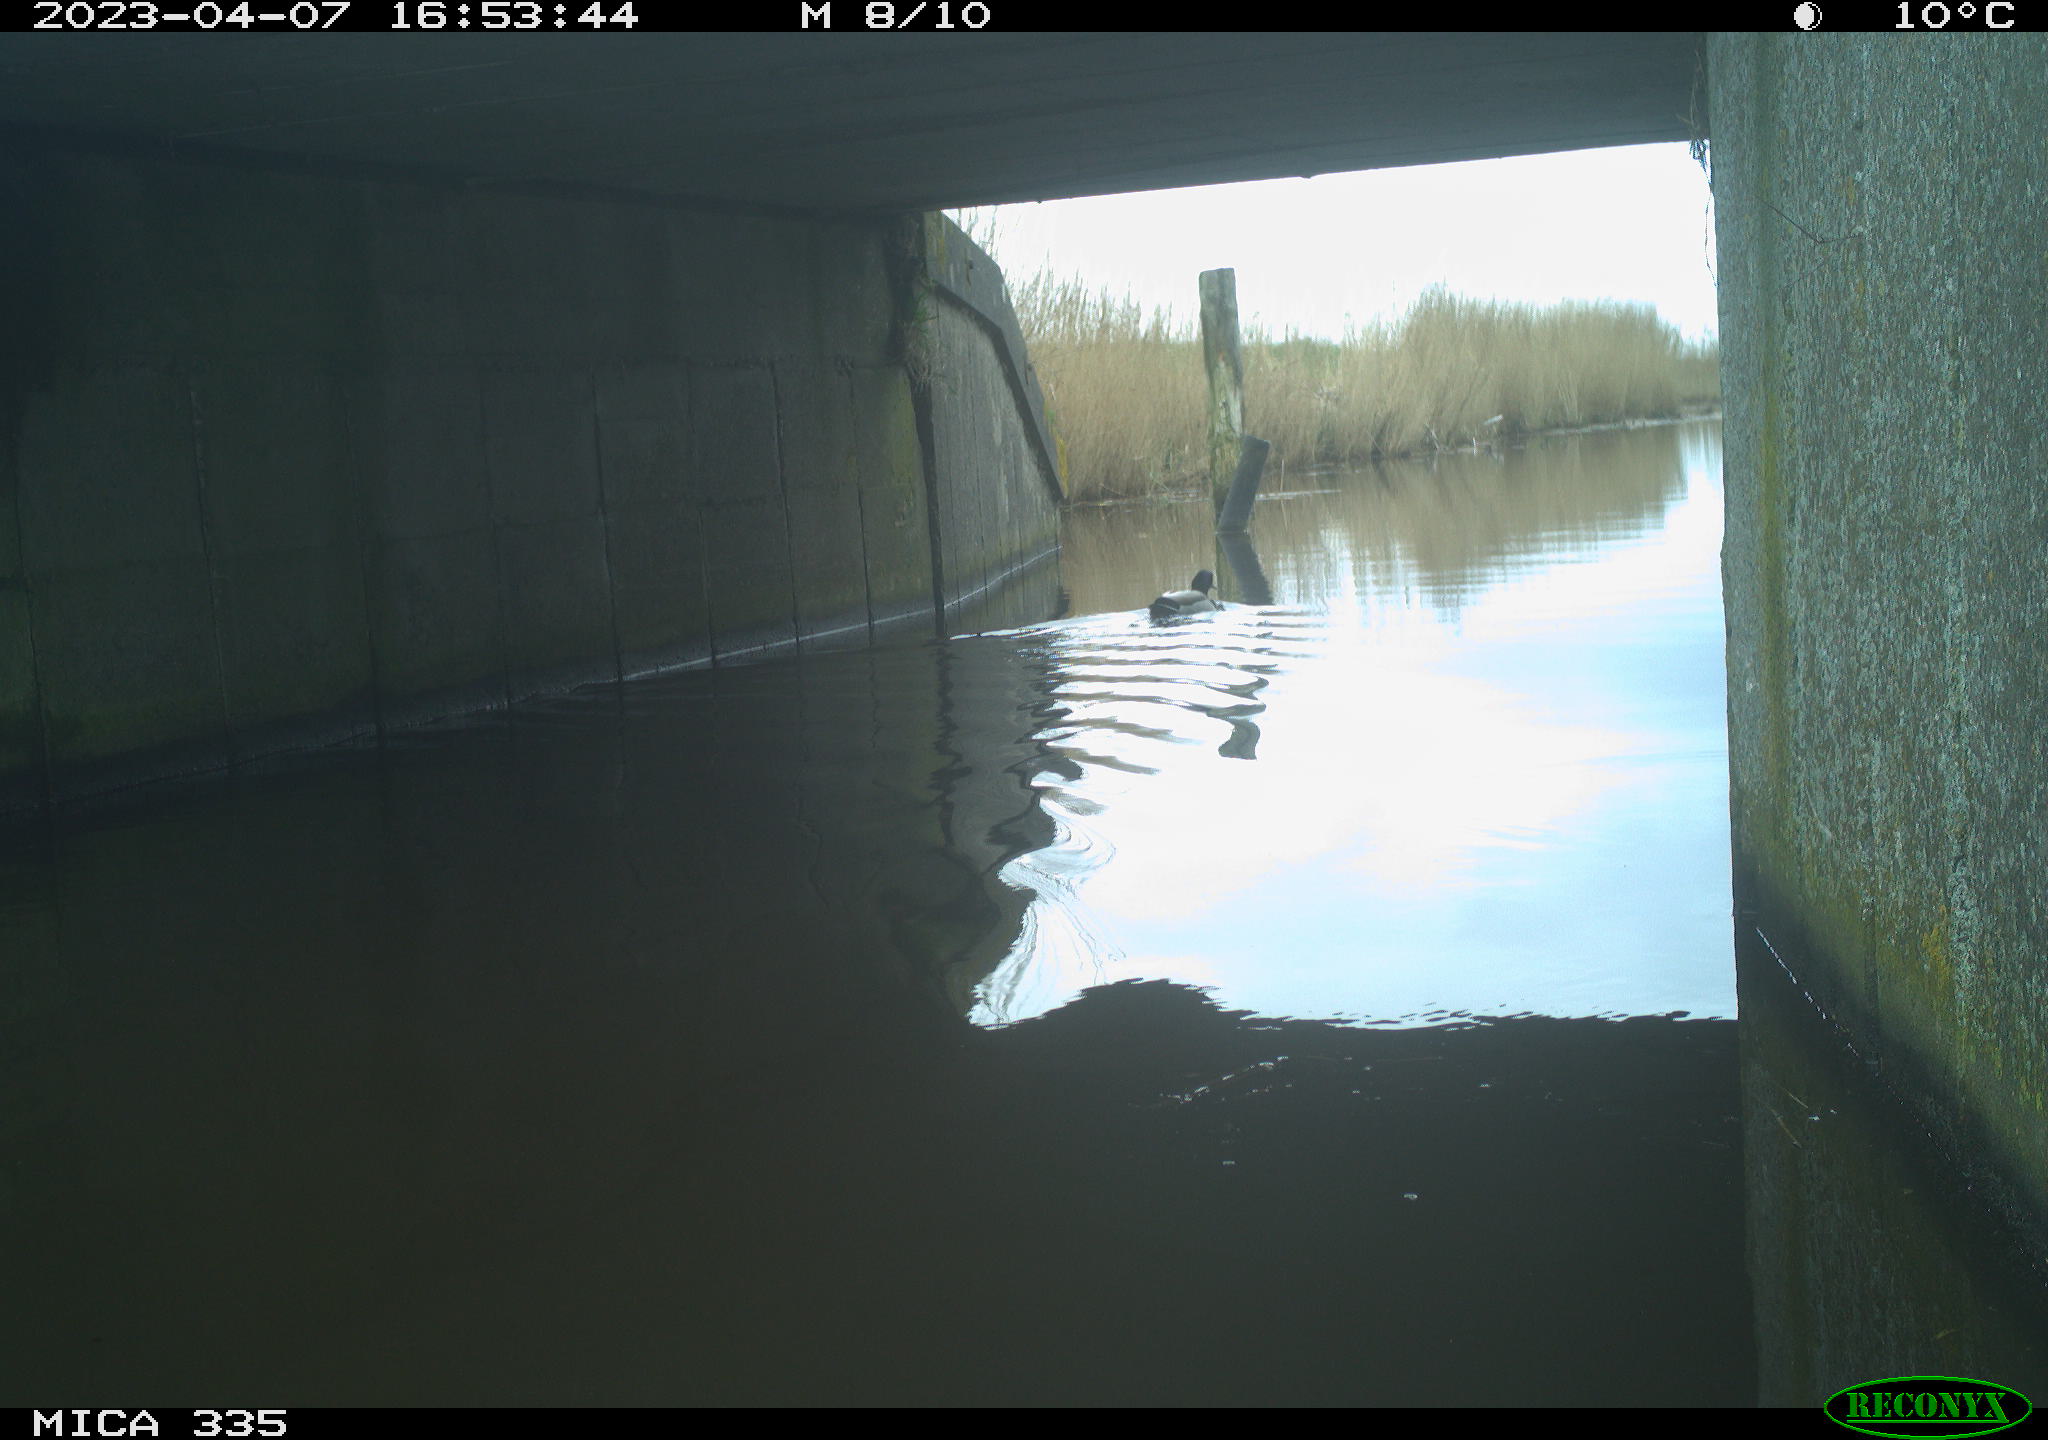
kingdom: Animalia
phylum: Chordata
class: Aves
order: Anseriformes
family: Anatidae
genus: Anas
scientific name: Anas
